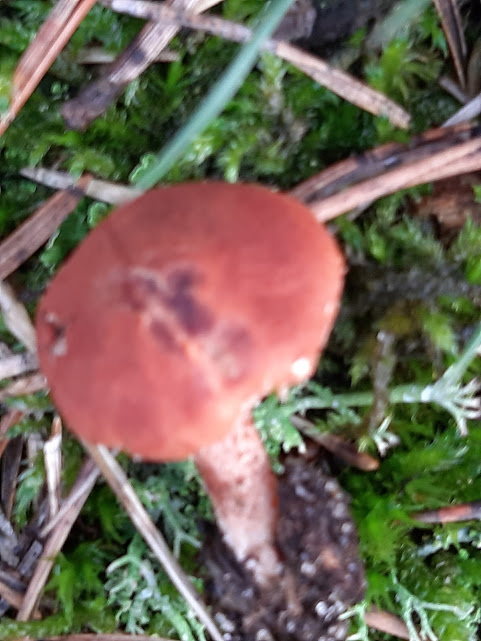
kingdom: Fungi
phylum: Basidiomycota
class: Agaricomycetes
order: Agaricales
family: Agaricaceae
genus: Cystodermella
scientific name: Cystodermella
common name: grynhat
